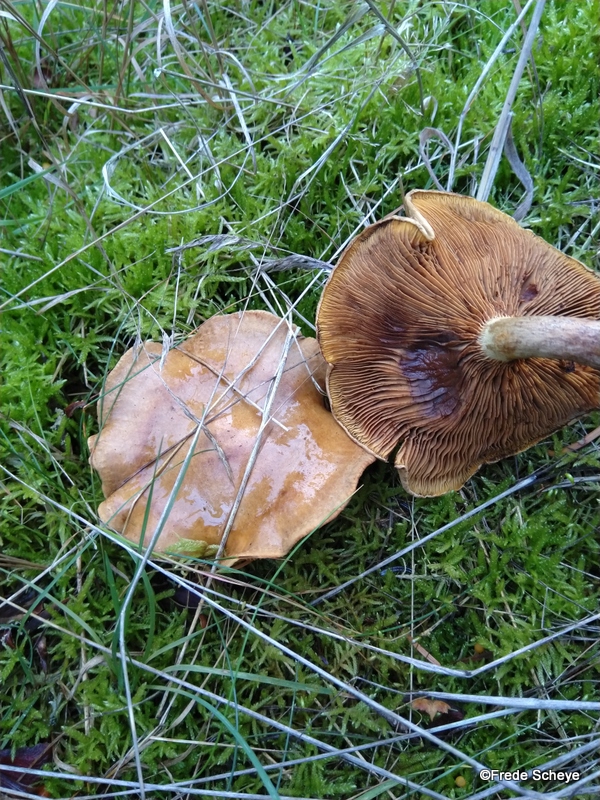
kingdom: Fungi
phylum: Basidiomycota
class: Agaricomycetes
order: Boletales
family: Paxillaceae
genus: Paxillus
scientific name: Paxillus involutus
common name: almindelig netbladhat
